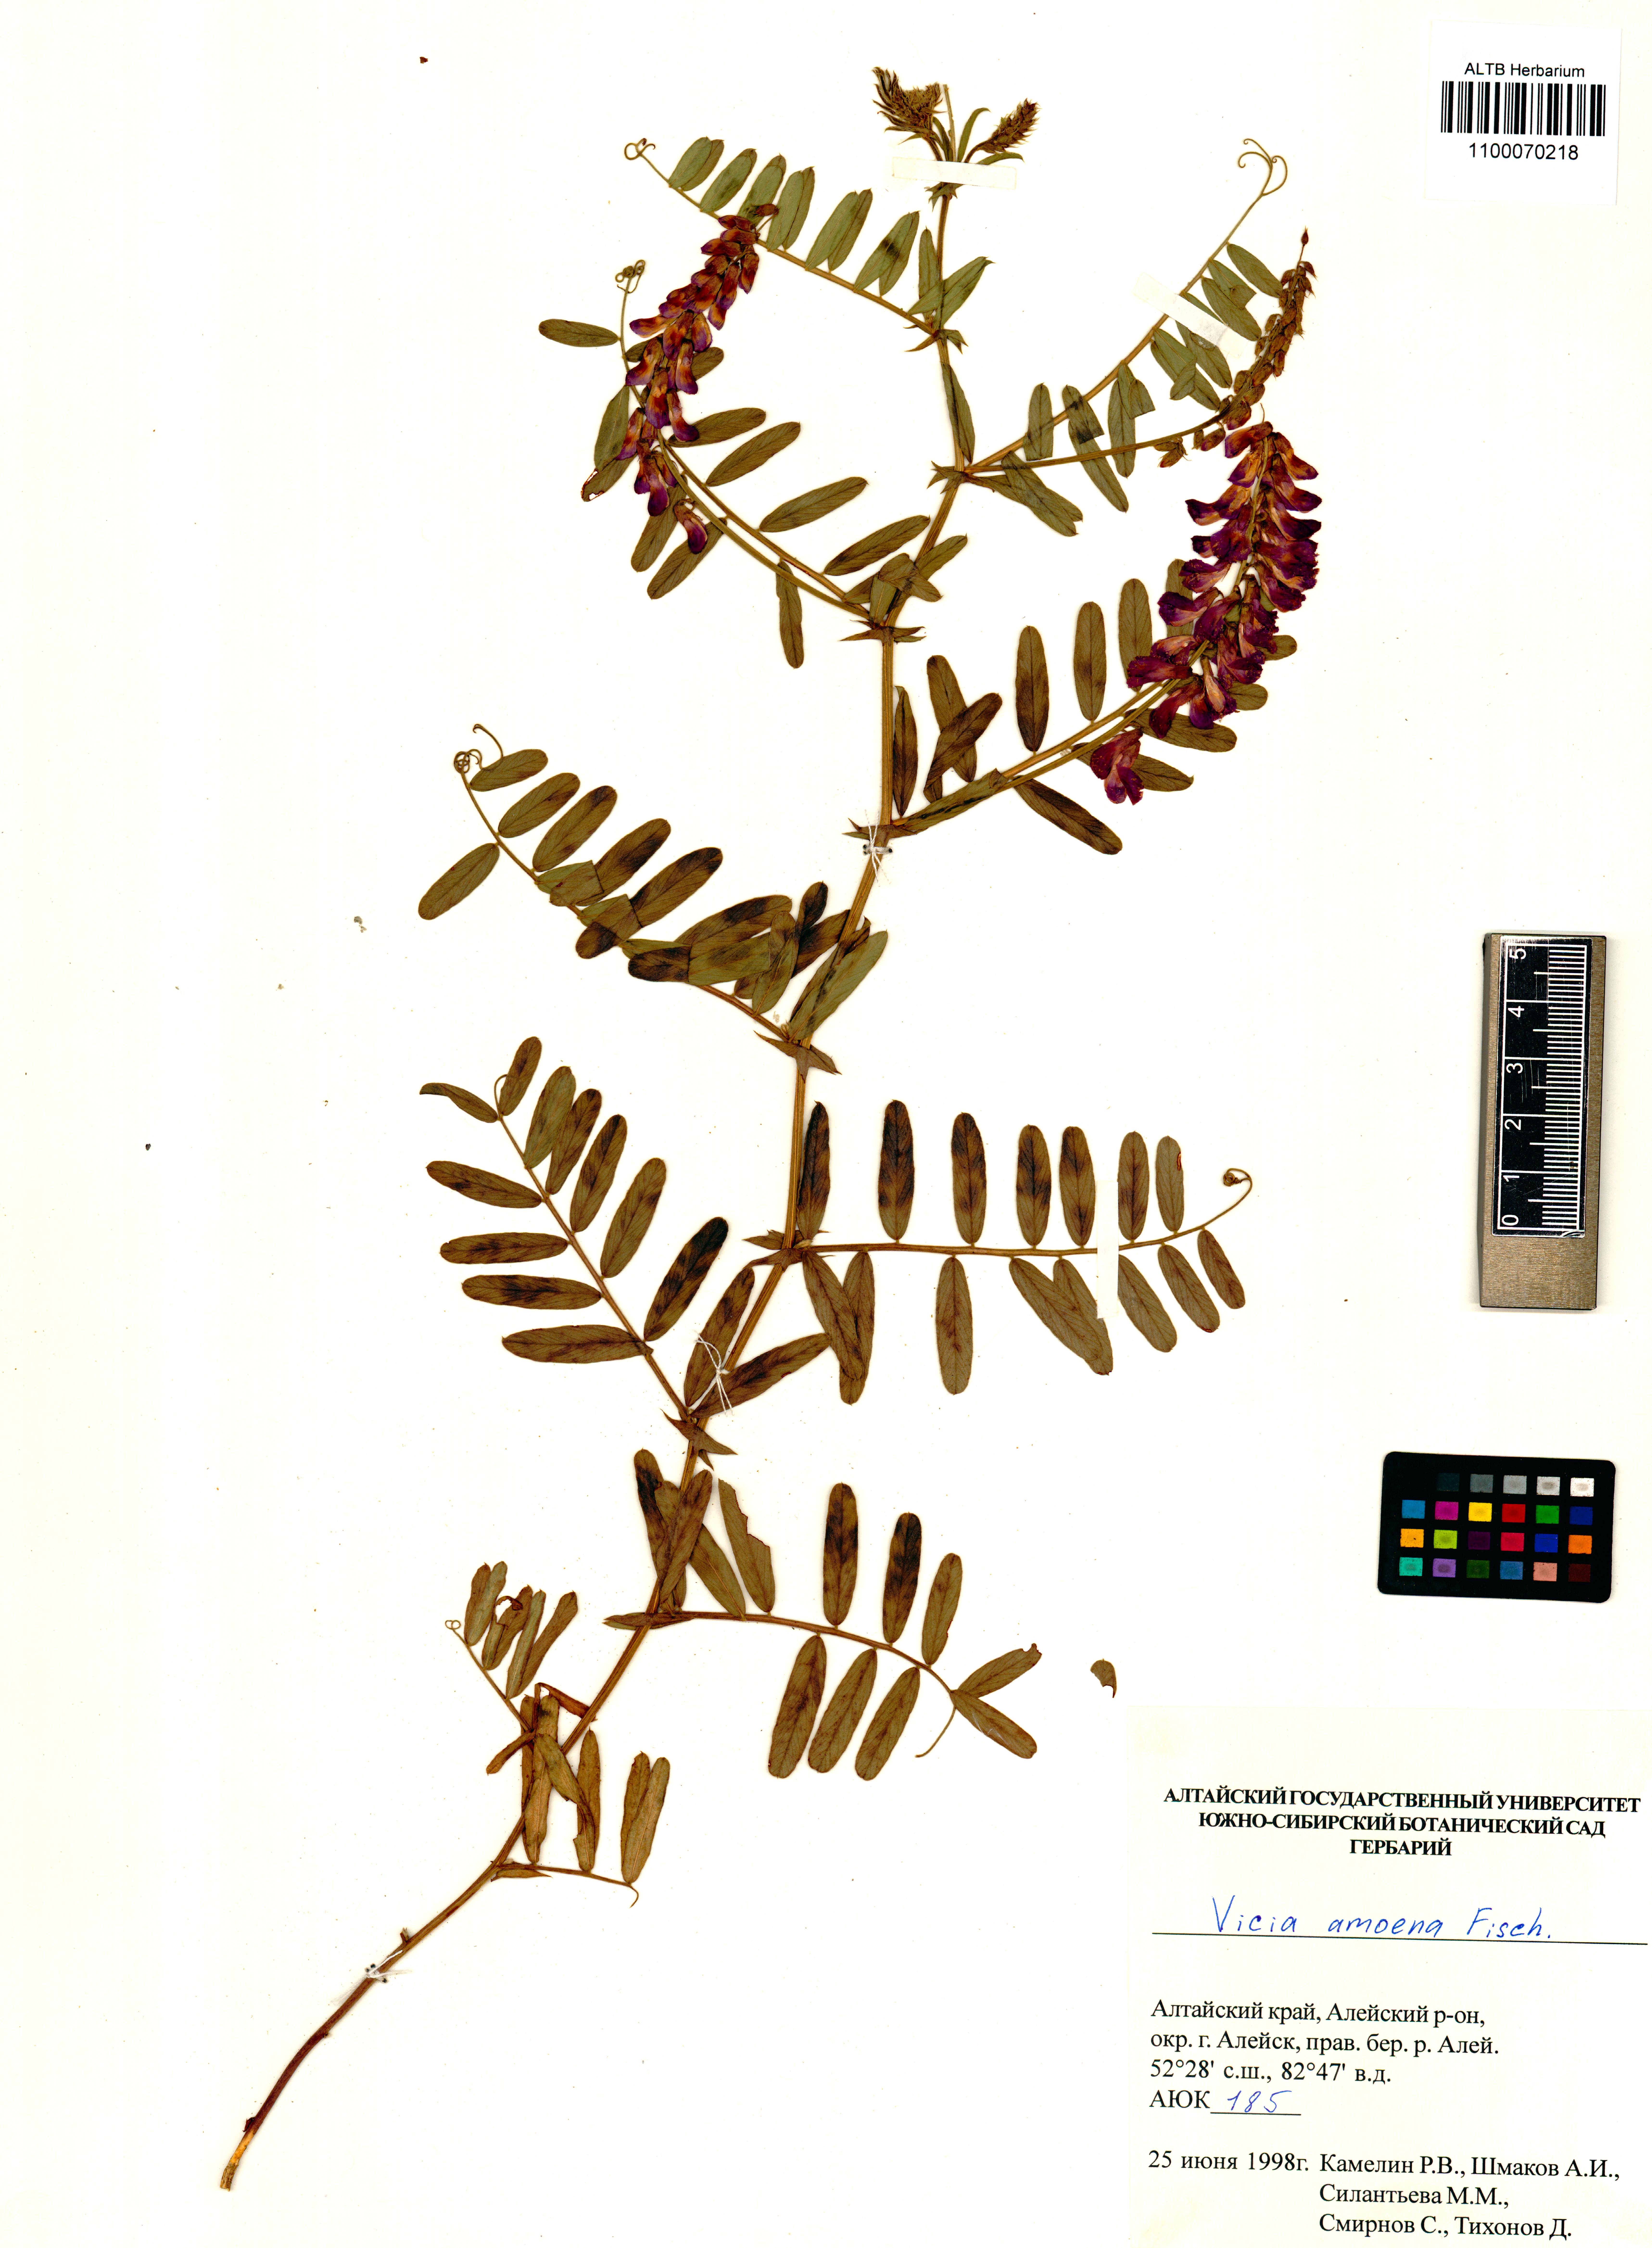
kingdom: Plantae
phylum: Tracheophyta
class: Magnoliopsida
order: Fabales
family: Fabaceae
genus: Vicia
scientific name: Vicia amoena
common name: Cheder ebs
